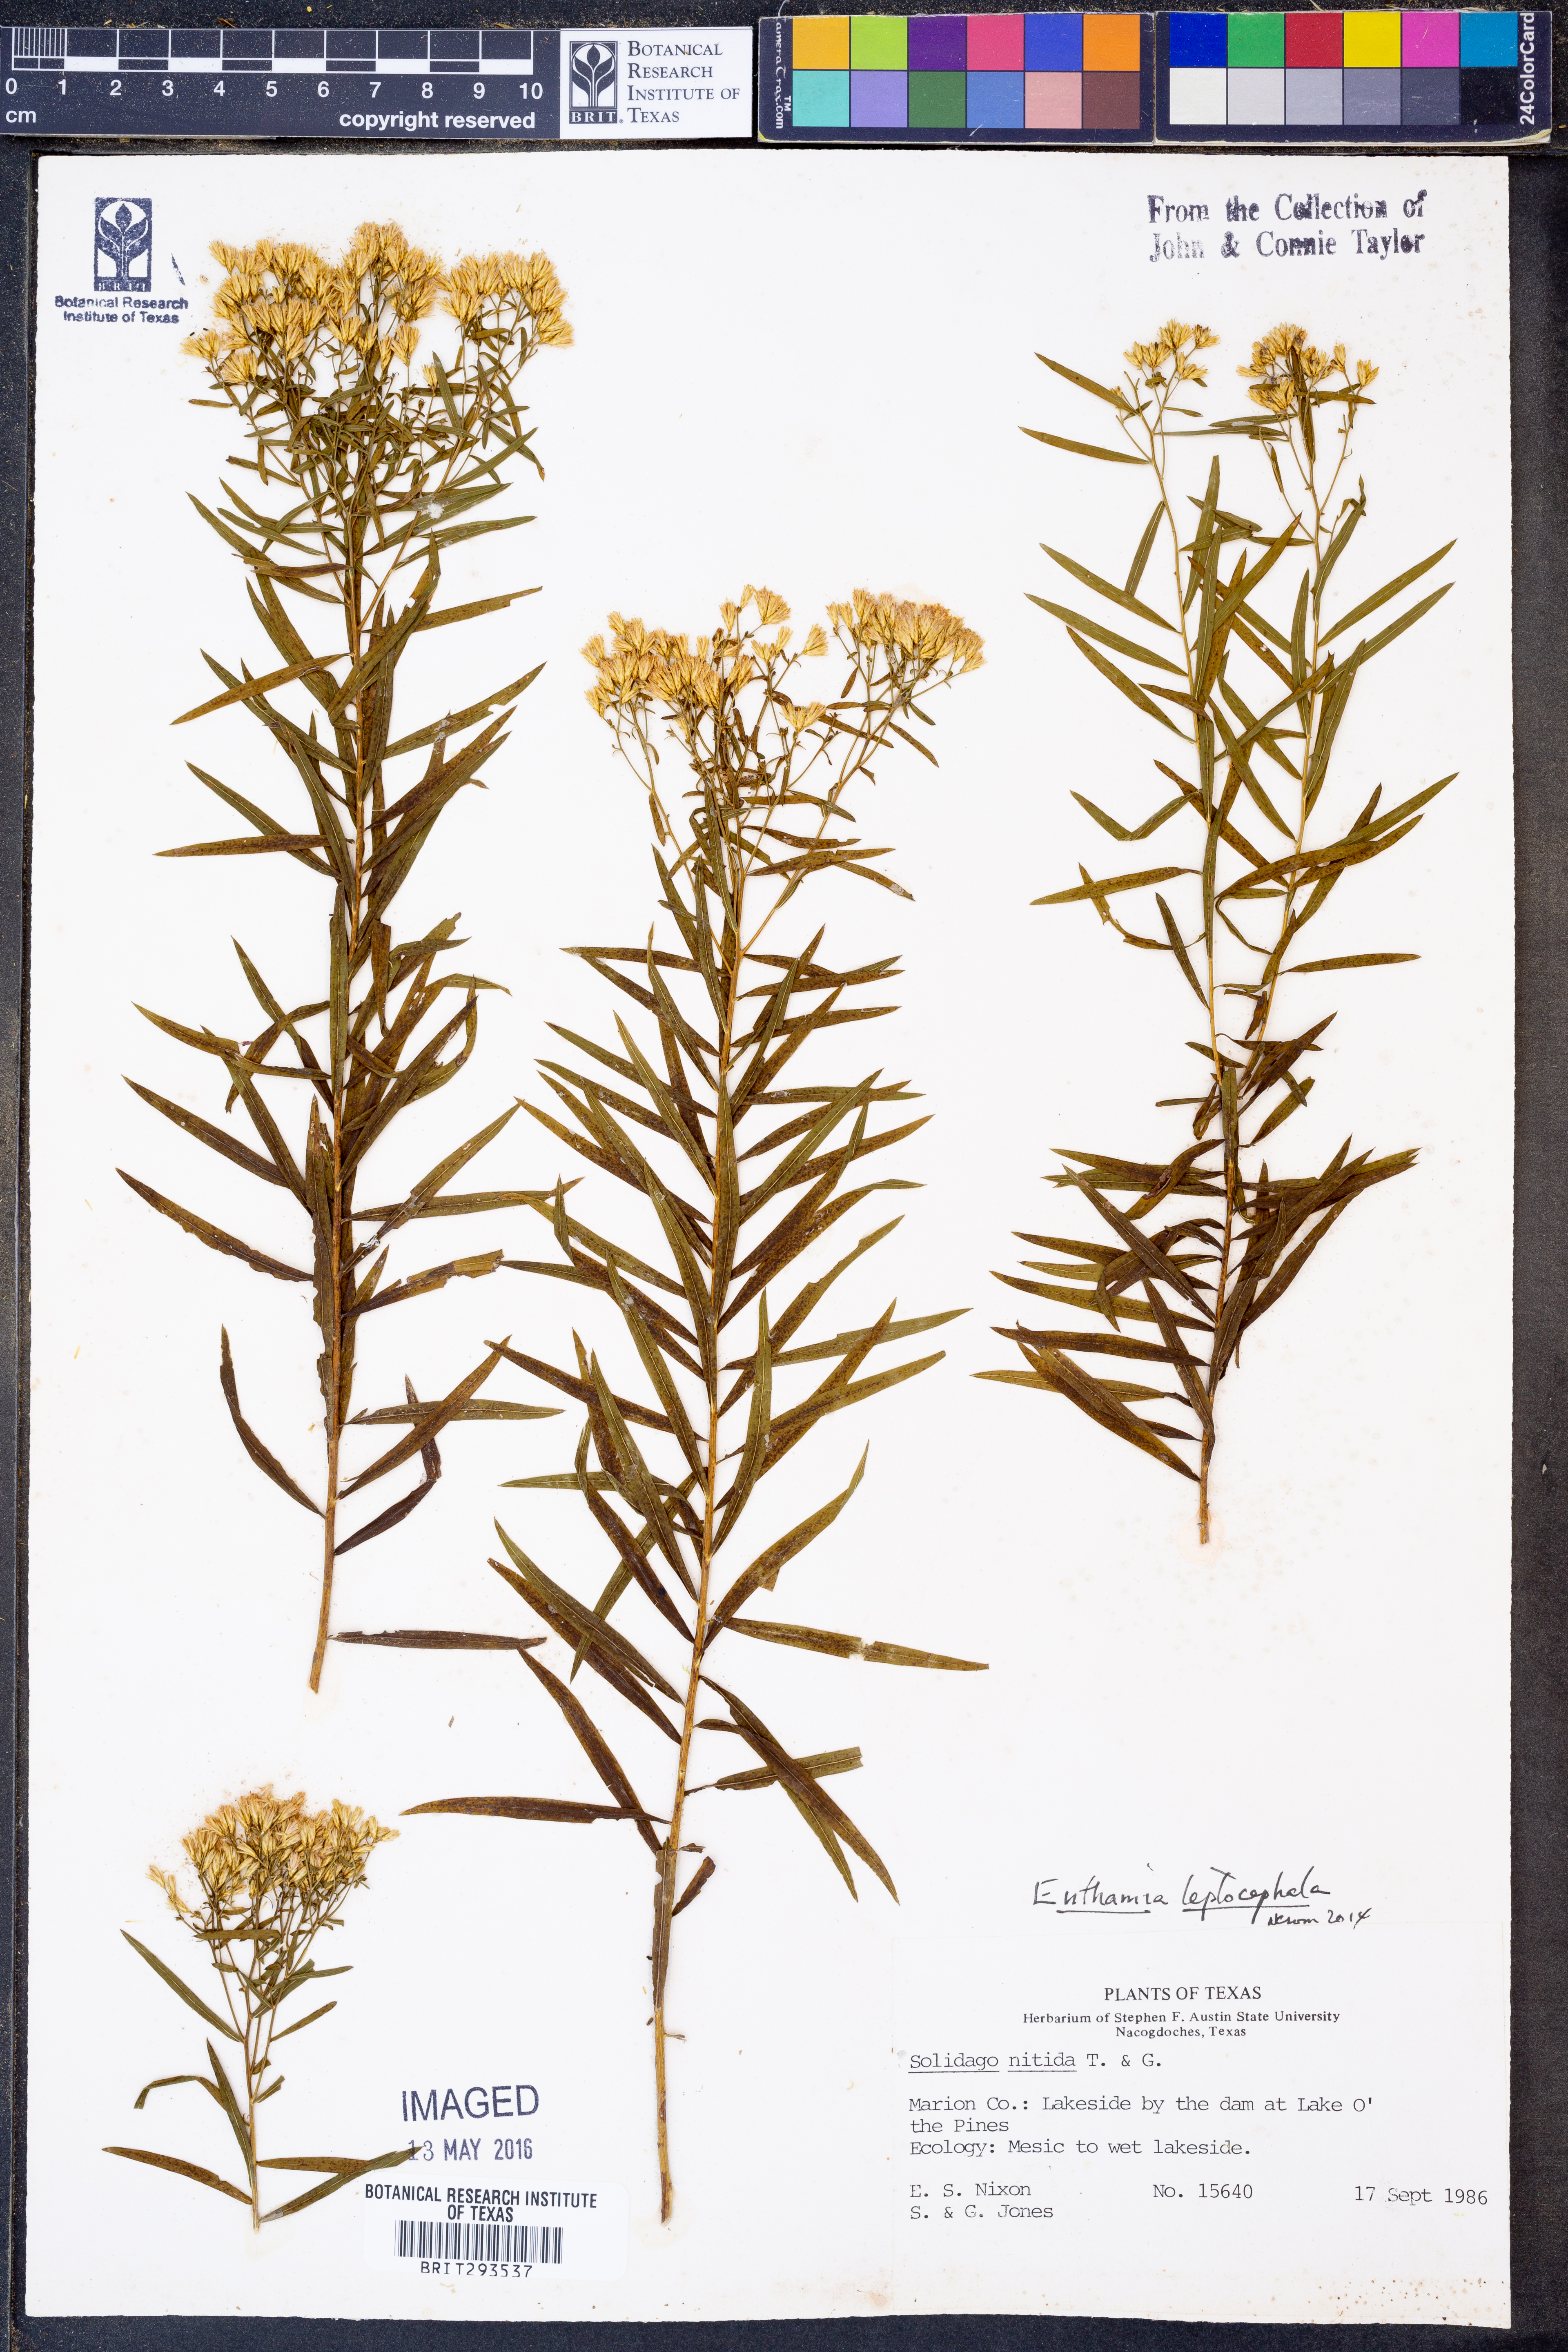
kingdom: Plantae
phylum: Tracheophyta
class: Magnoliopsida
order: Asterales
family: Asteraceae
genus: Euthamia
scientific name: Euthamia leptocephala
